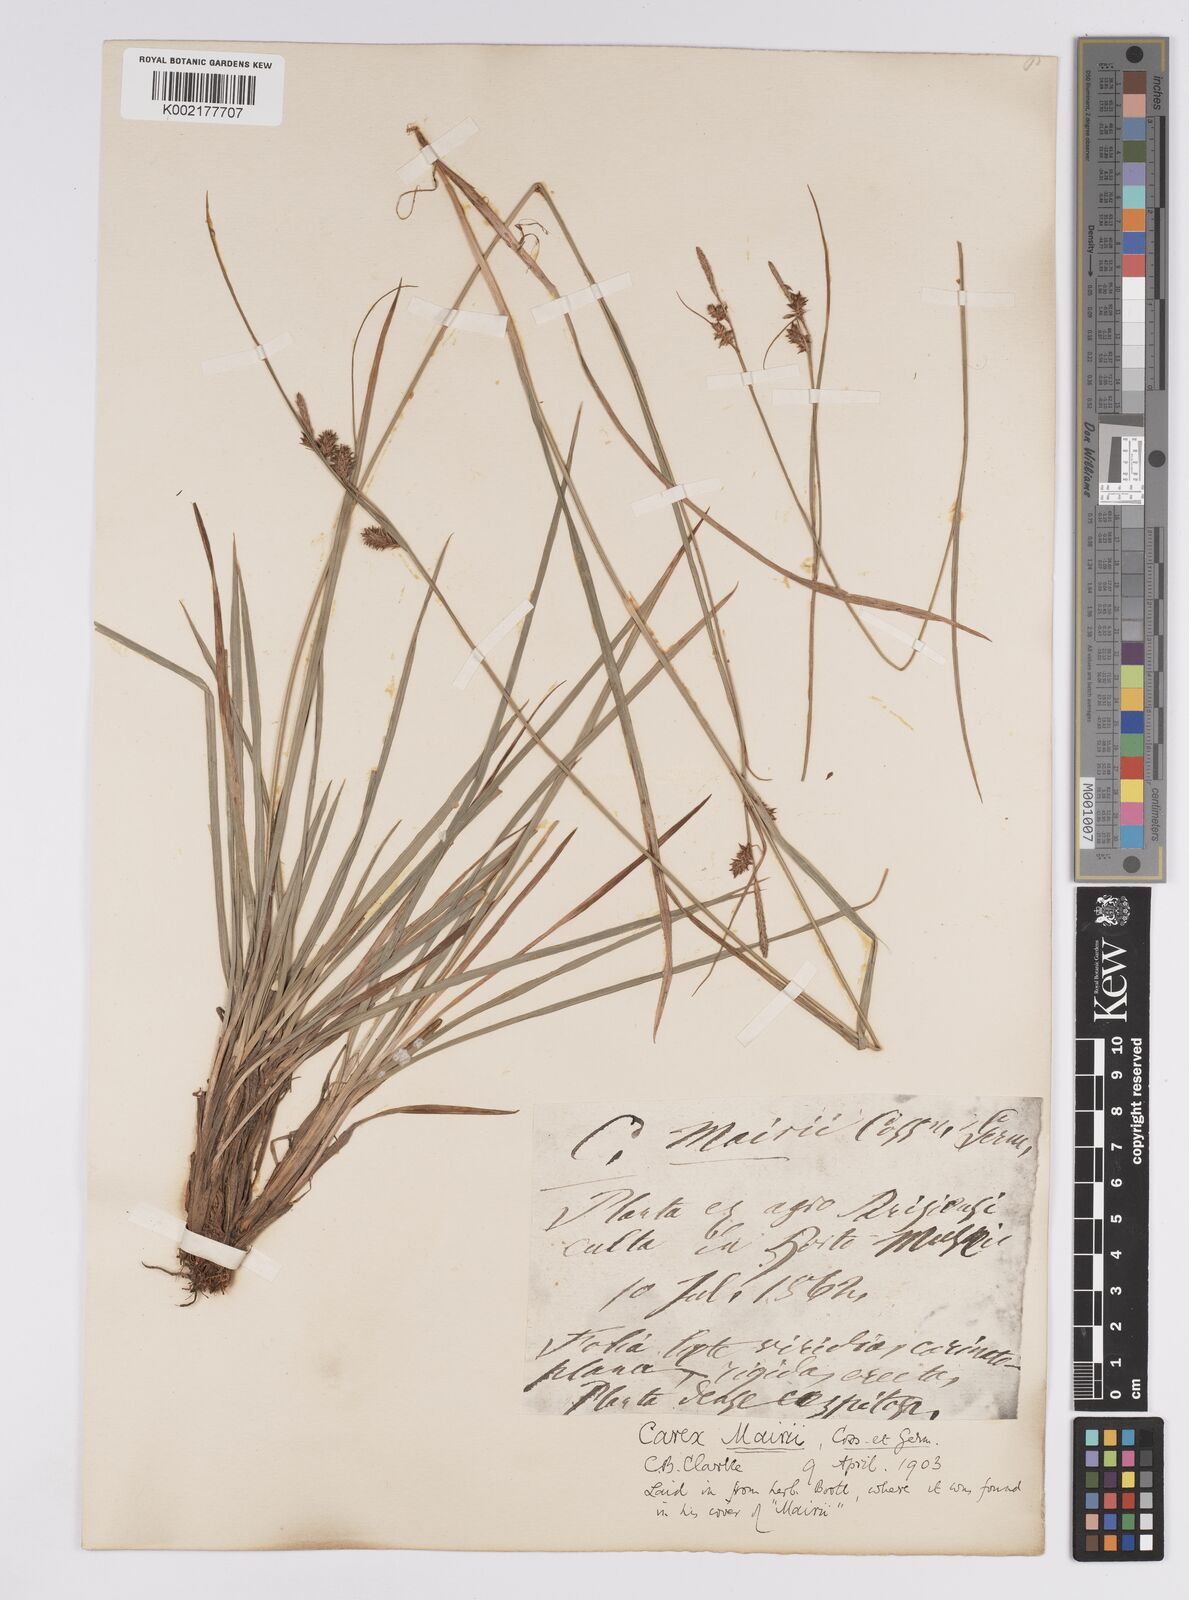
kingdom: Plantae
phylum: Tracheophyta
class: Liliopsida
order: Poales
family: Cyperaceae
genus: Carex
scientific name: Carex mairei
